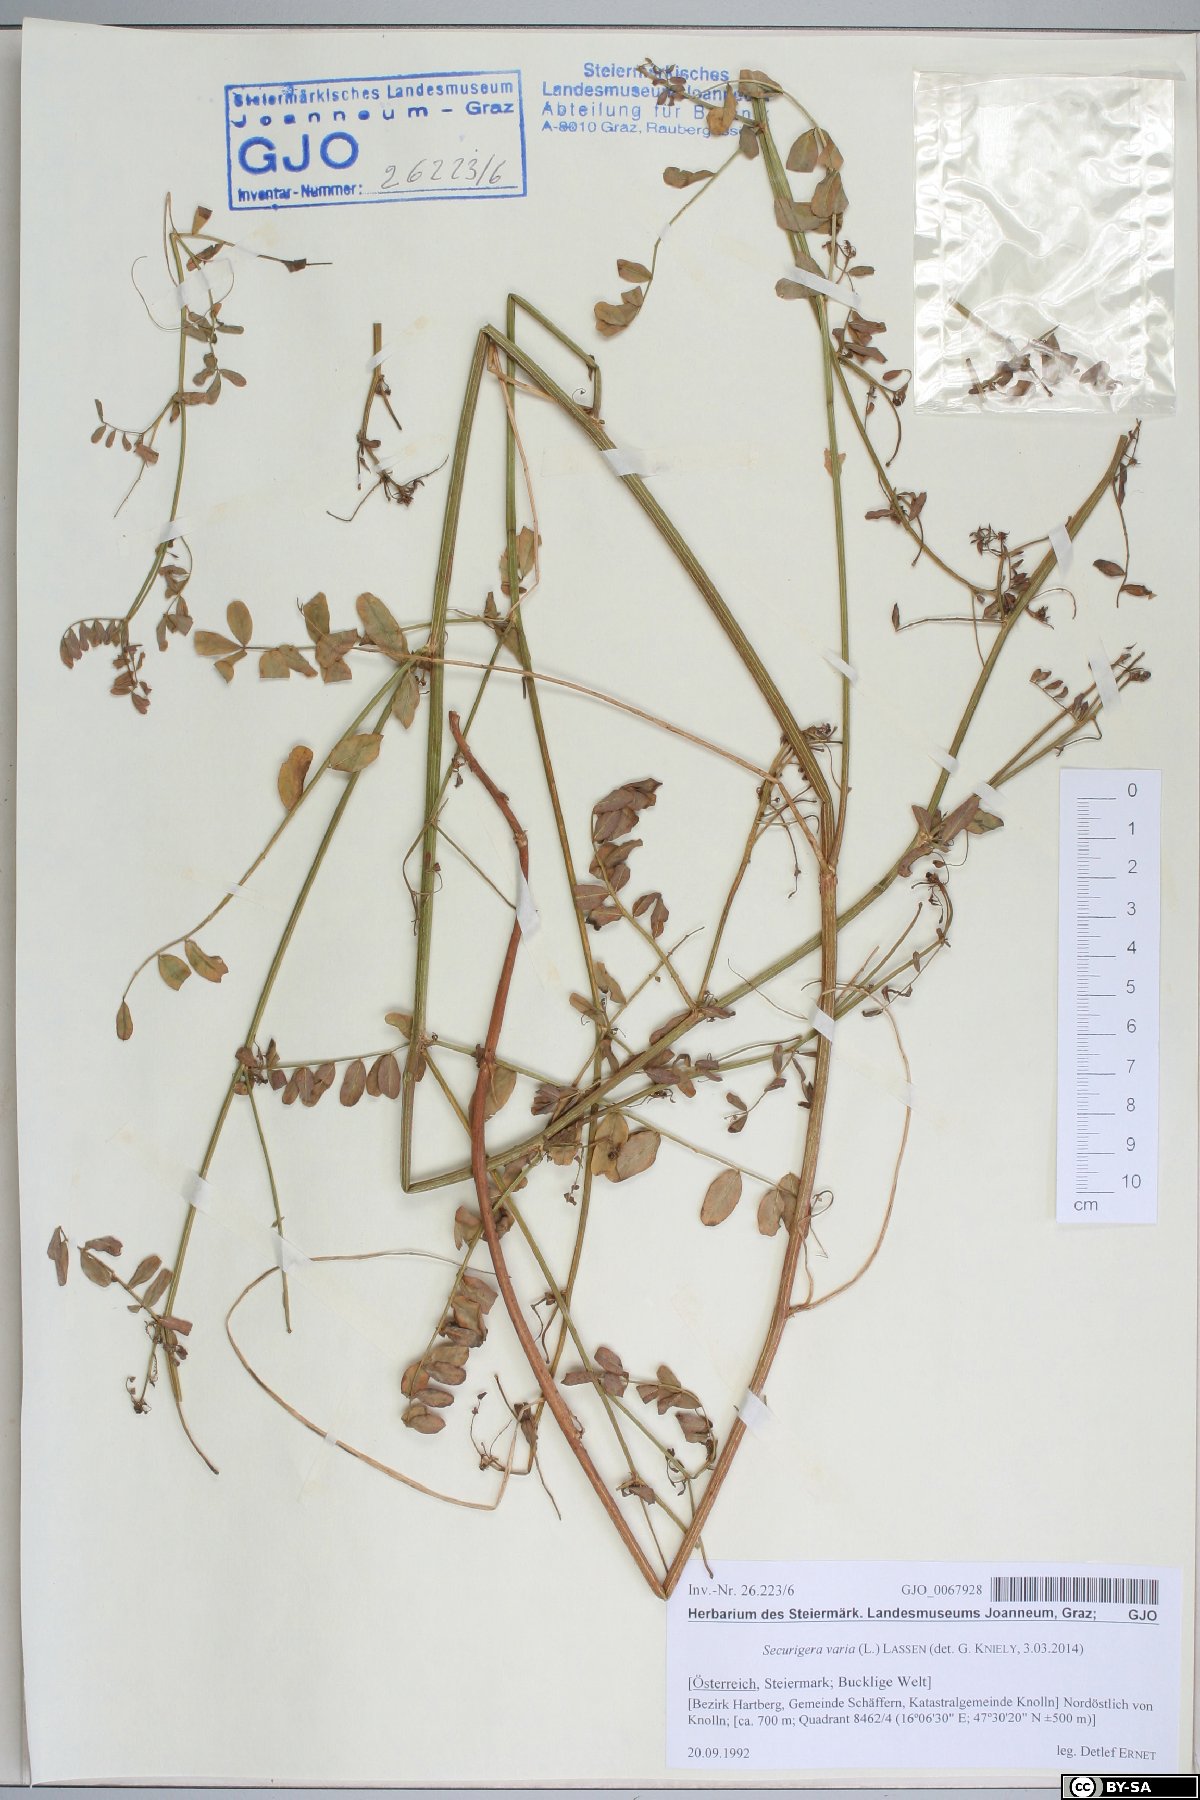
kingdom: Plantae
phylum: Tracheophyta
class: Magnoliopsida
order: Fabales
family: Fabaceae
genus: Coronilla
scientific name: Coronilla varia
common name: Crownvetch
